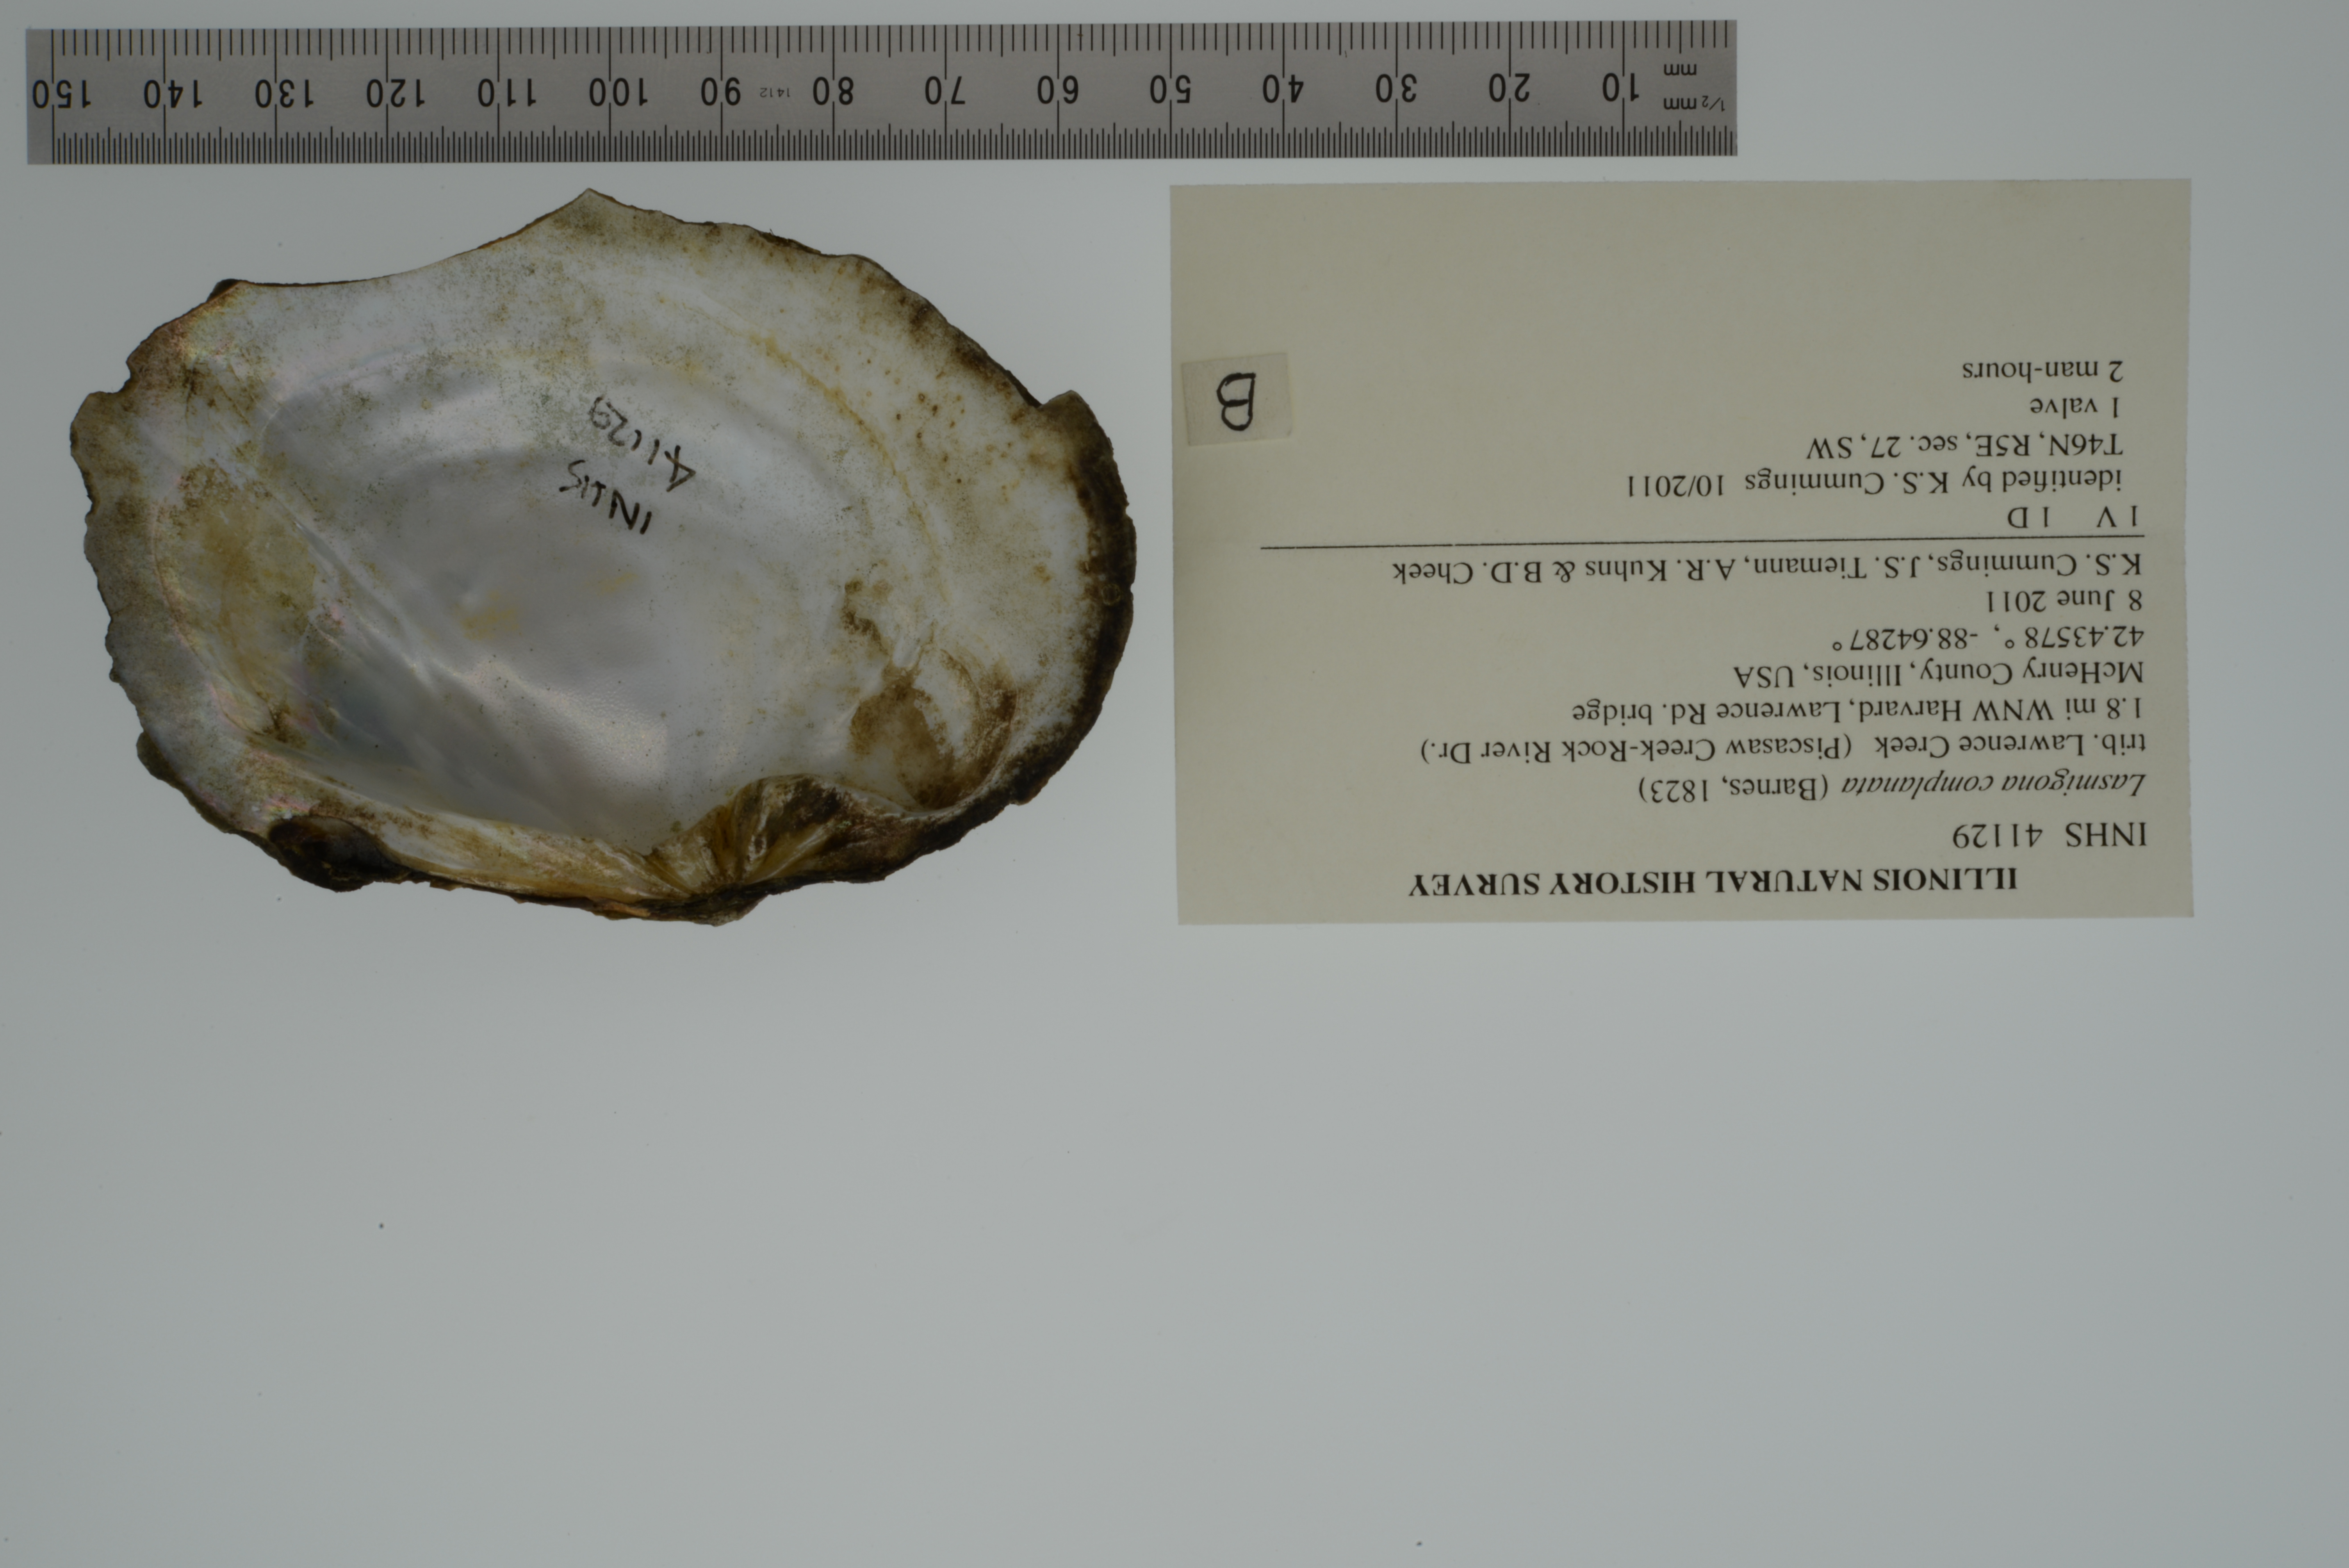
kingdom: Animalia
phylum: Mollusca
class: Bivalvia
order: Unionida
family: Unionidae
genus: Lasmigona
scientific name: Lasmigona complanata
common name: White heelsplitter
